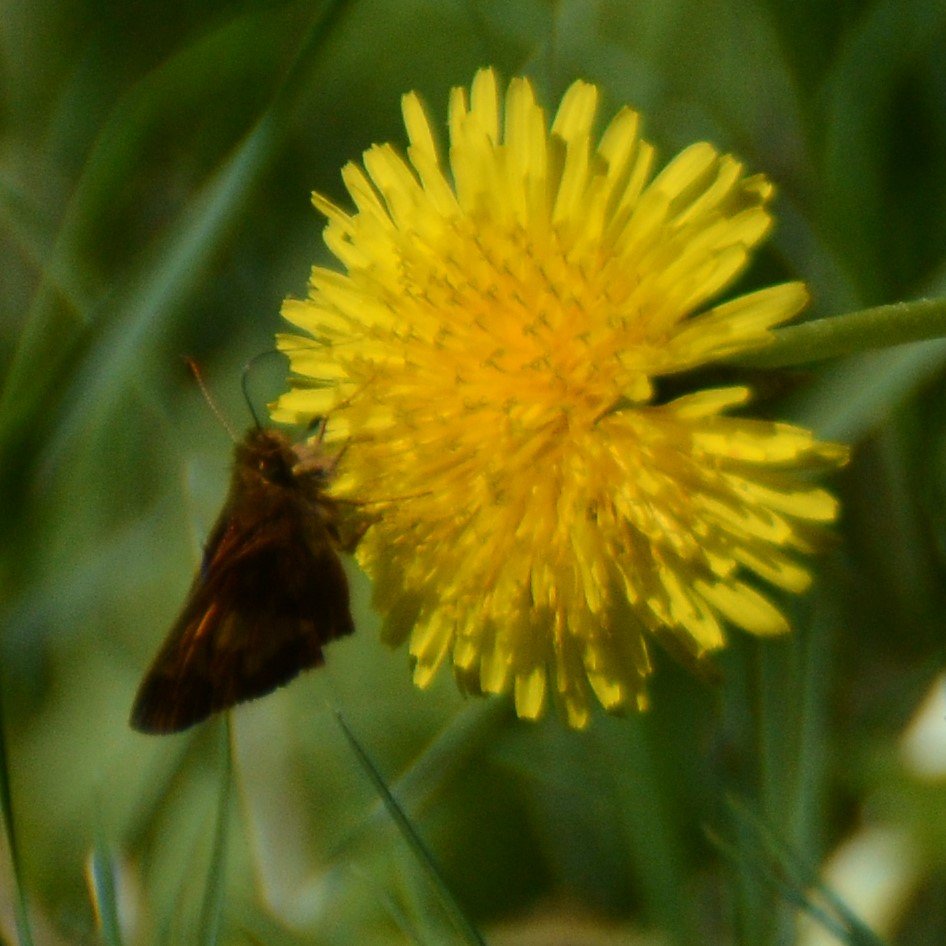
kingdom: Animalia
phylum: Arthropoda
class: Insecta
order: Lepidoptera
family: Hesperiidae
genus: Lon
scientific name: Lon hobomok
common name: Hobomok Skipper
